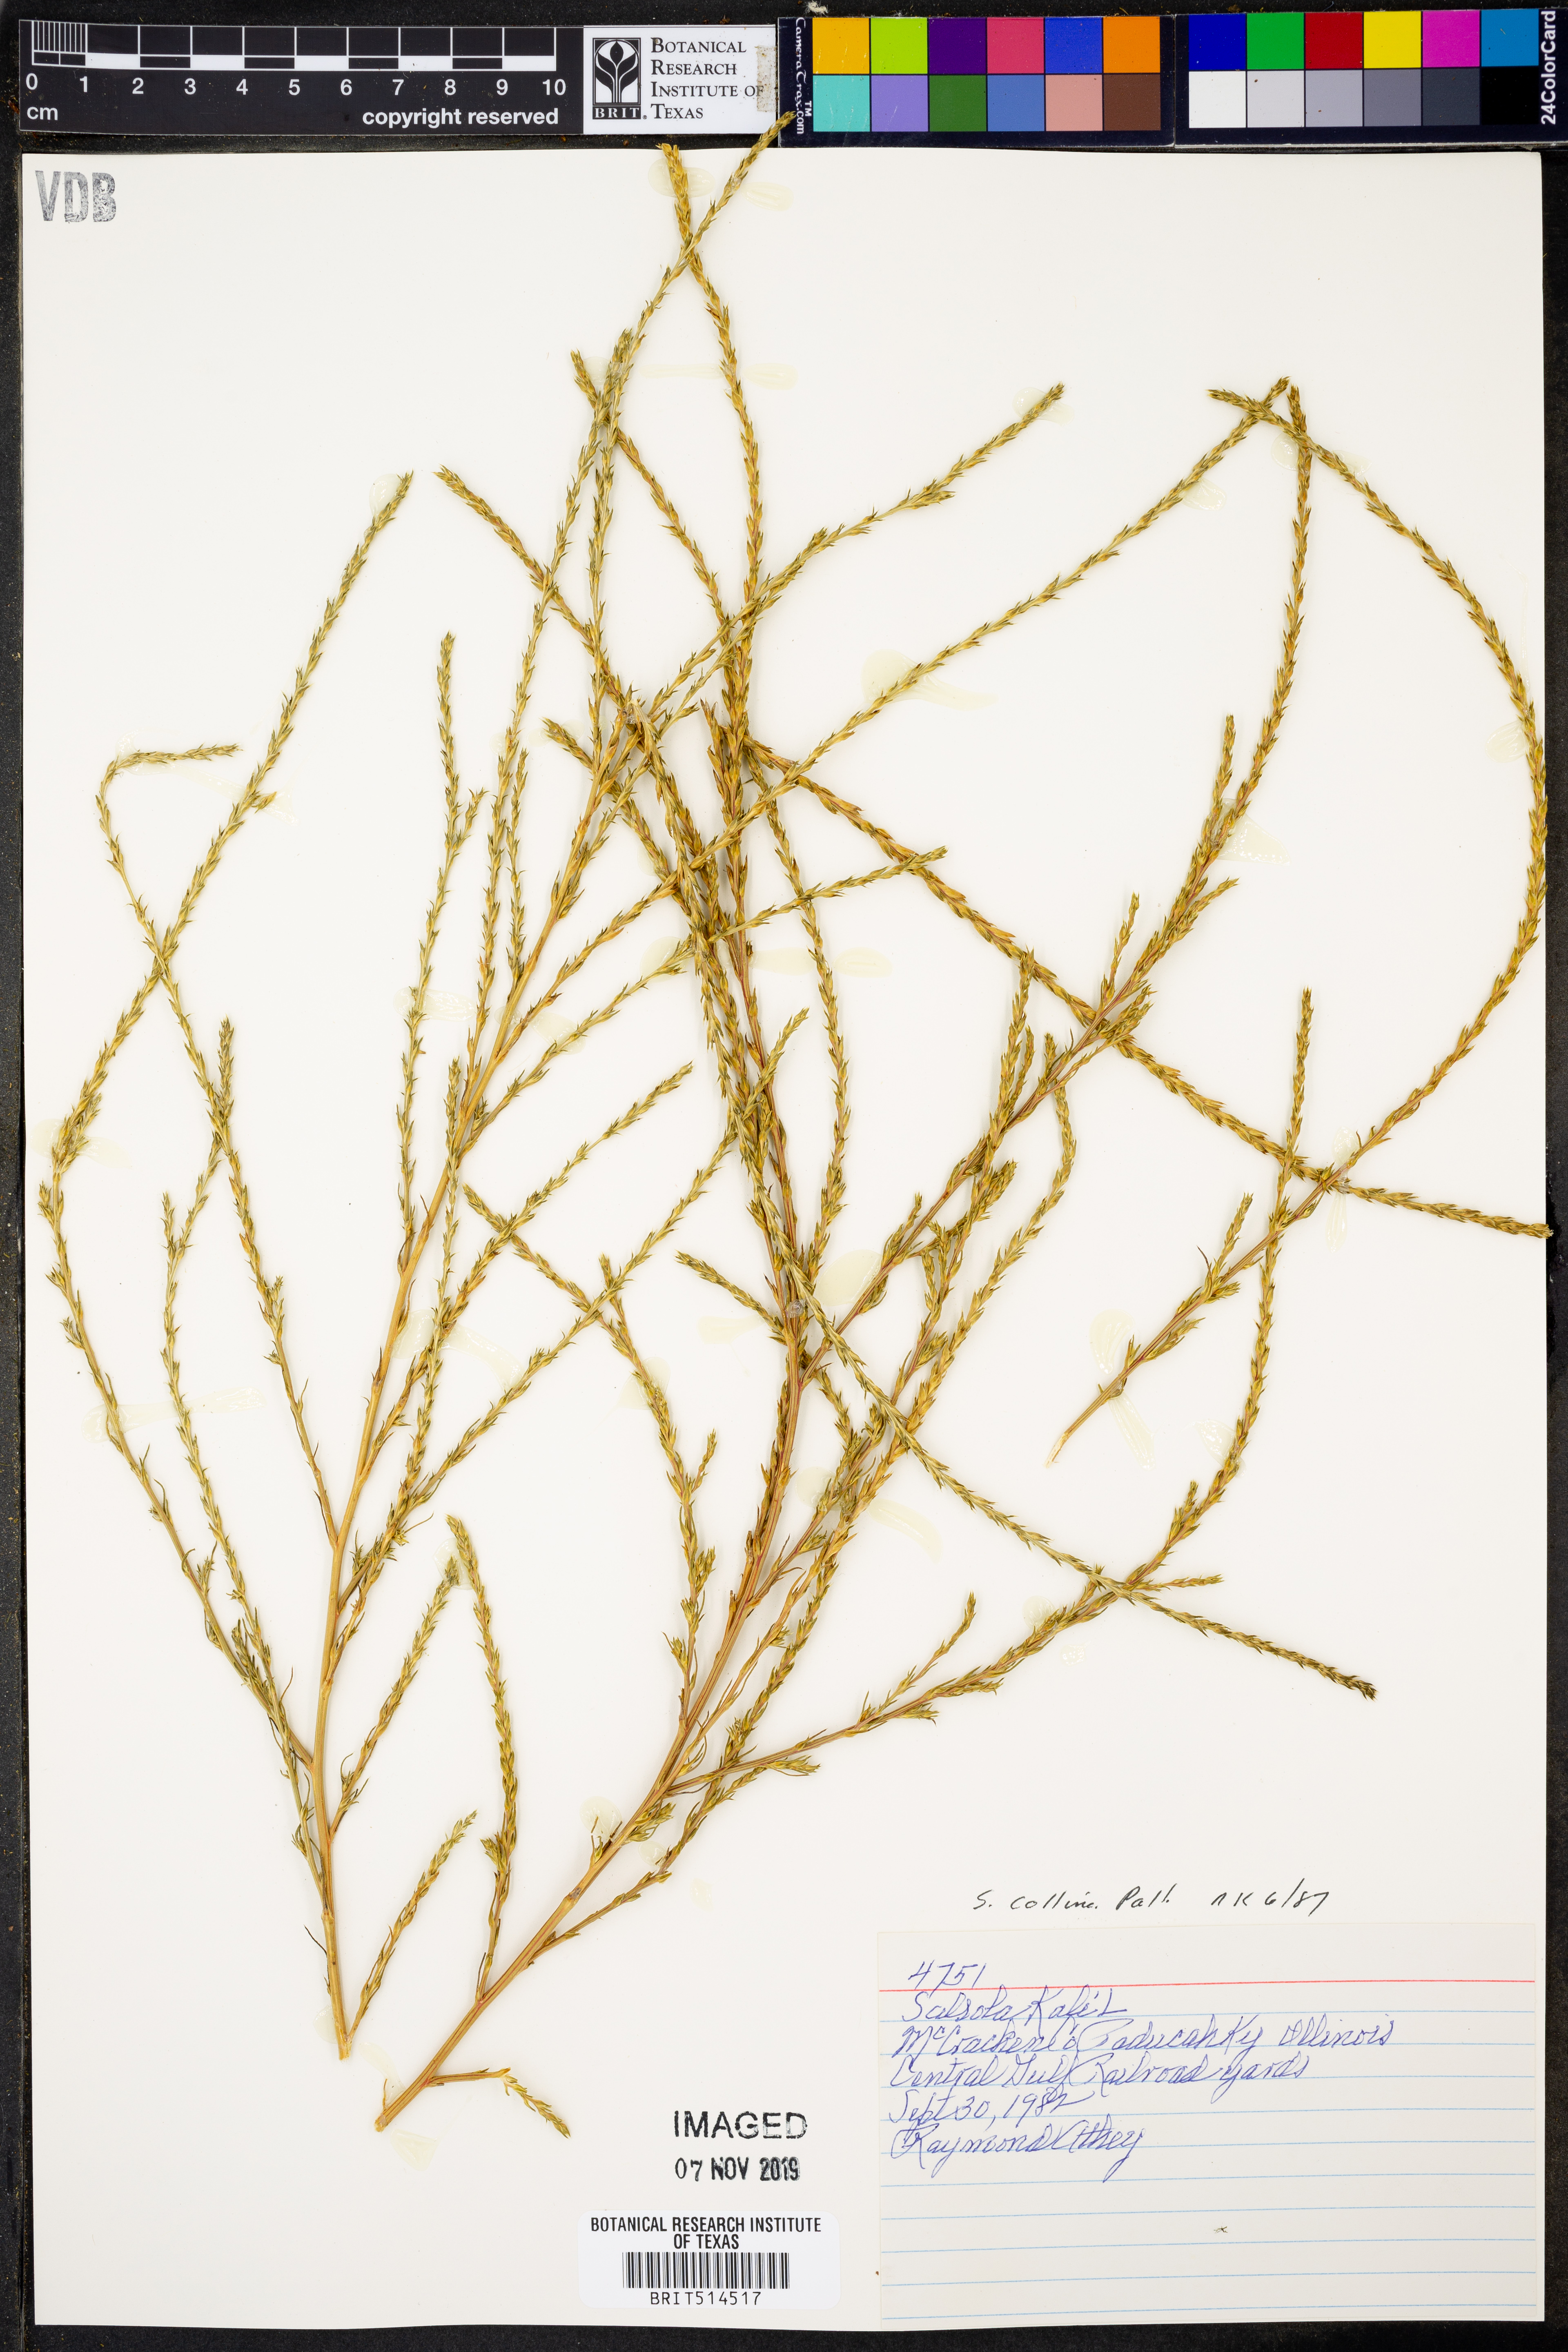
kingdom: Plantae
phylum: Tracheophyta
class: Magnoliopsida
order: Caryophyllales
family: Amaranthaceae
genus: Salsola
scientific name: Salsola collina
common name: Tumbleweed
